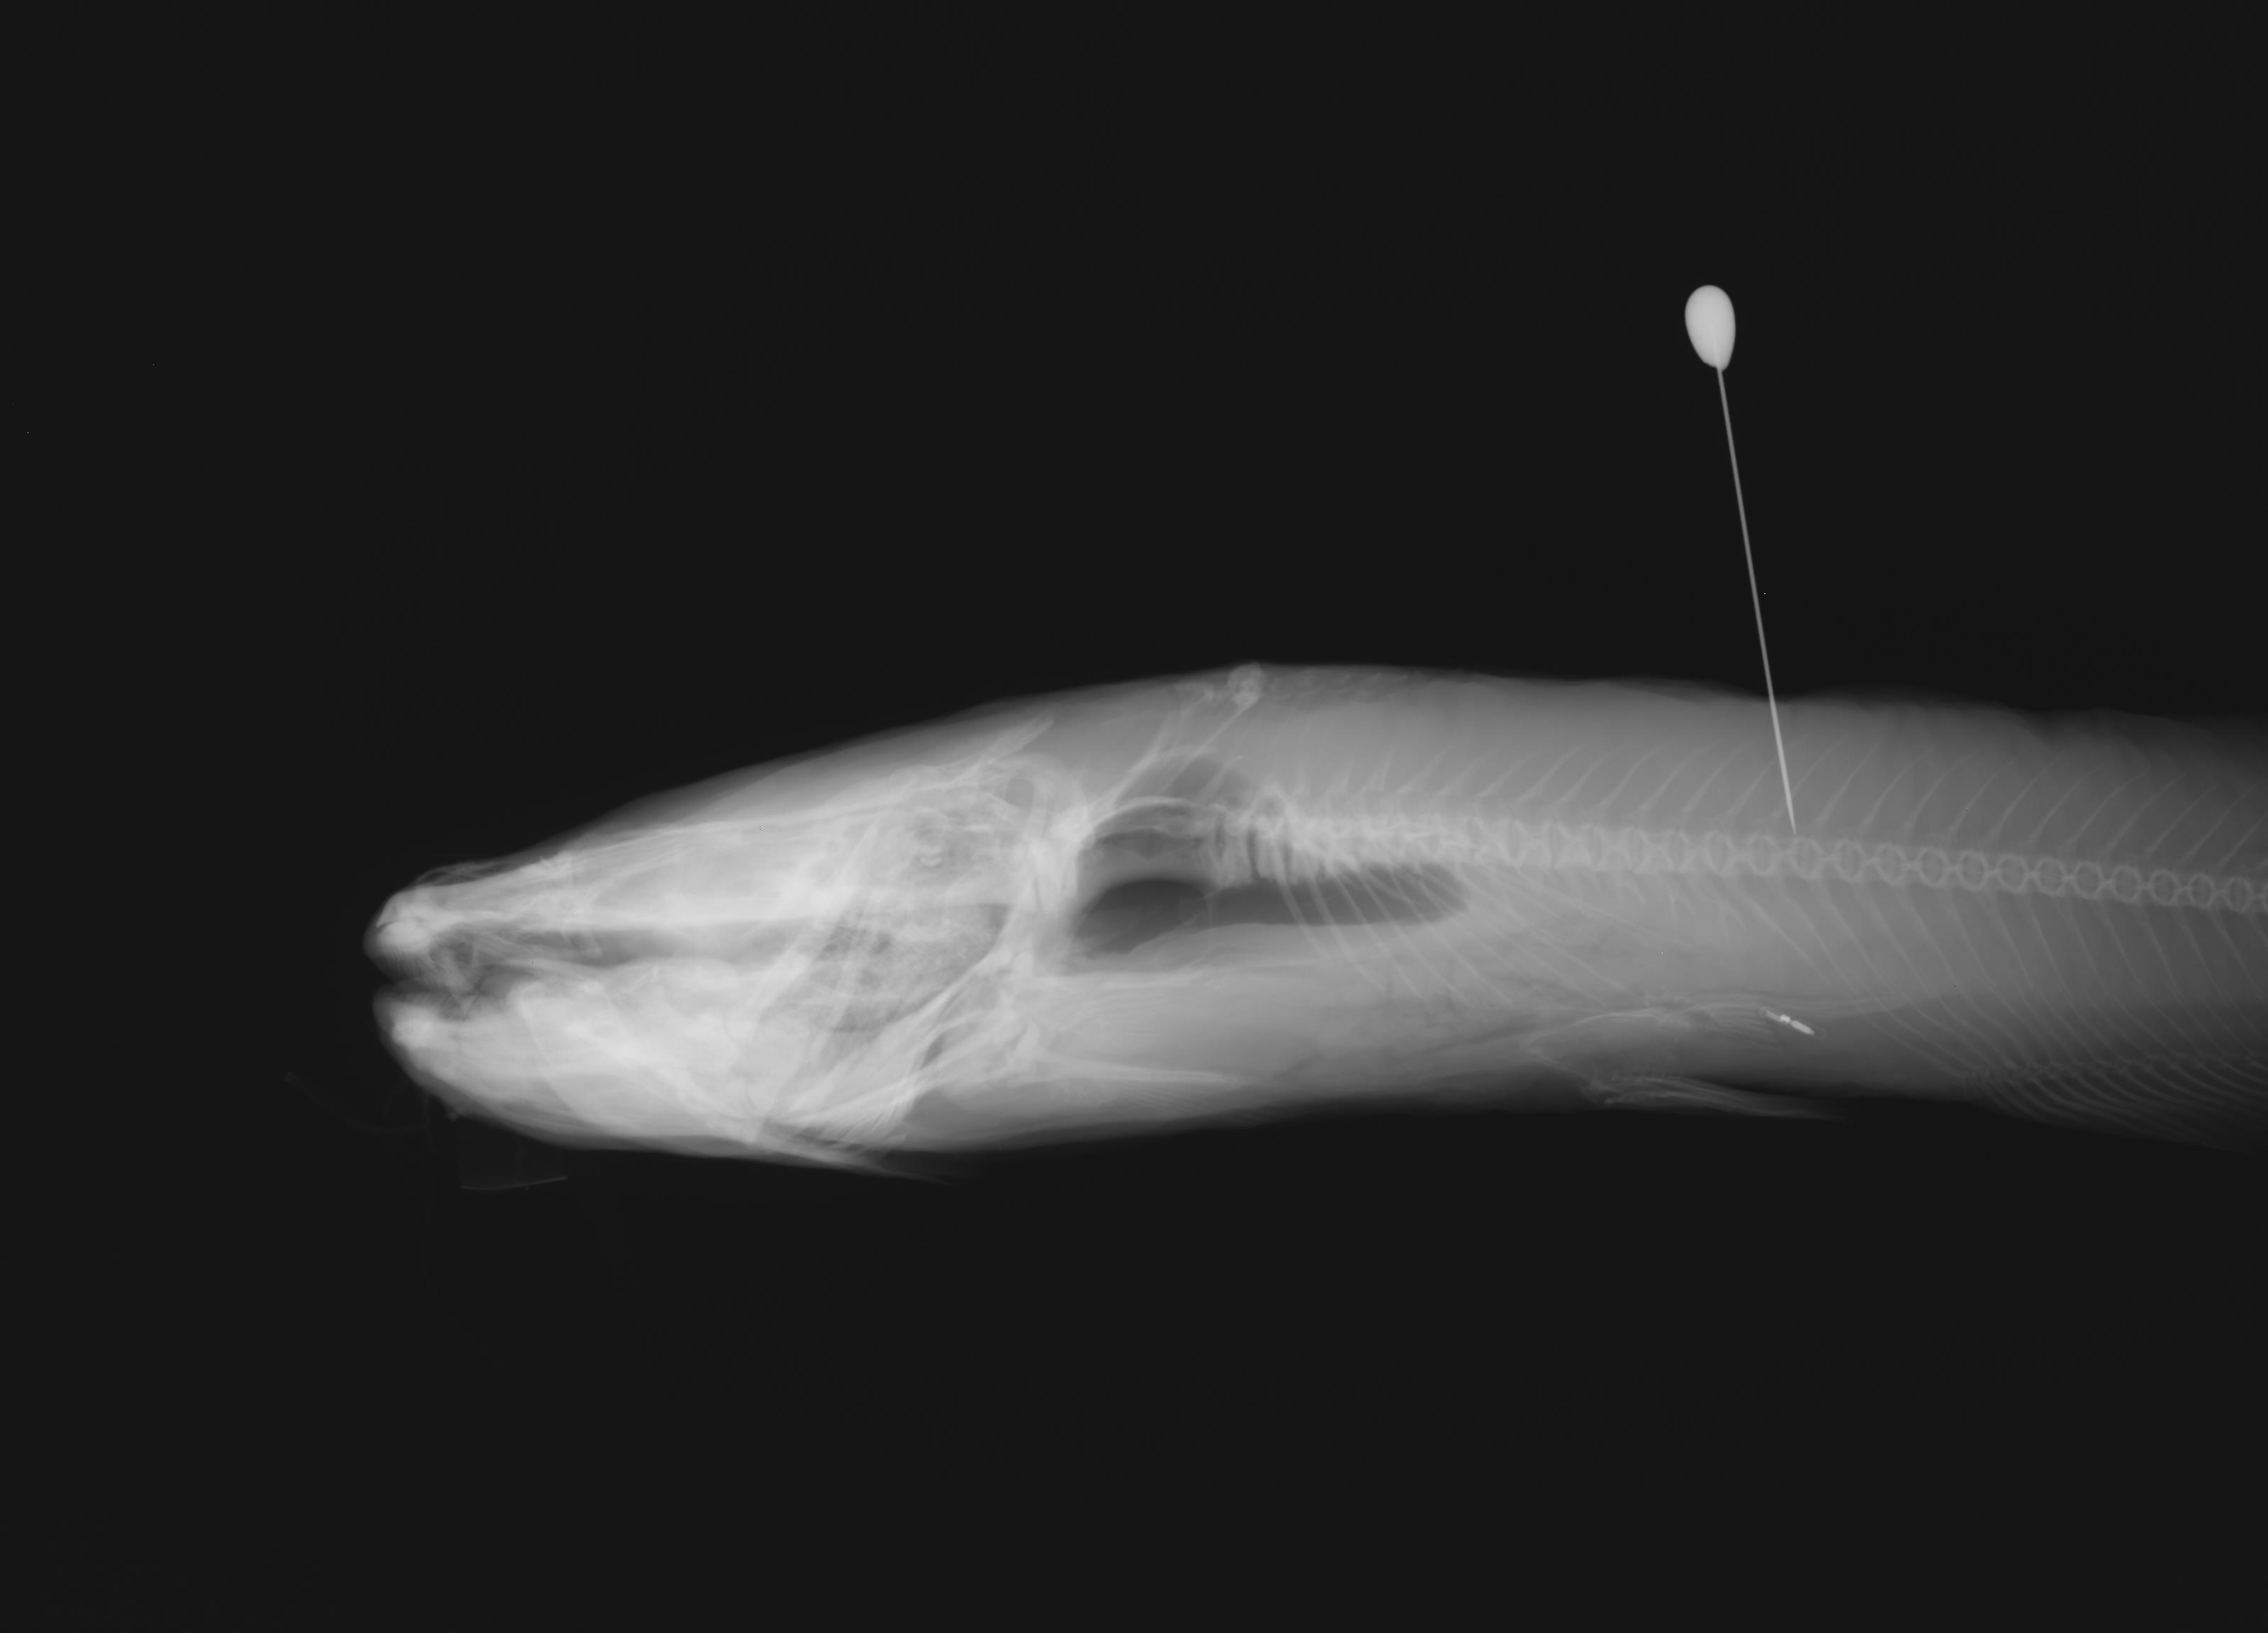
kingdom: Animalia
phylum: Chordata
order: Siluriformes
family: Ictaluridae
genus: Ictalurus
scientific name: Ictalurus pricei
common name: Yaqui catfish
